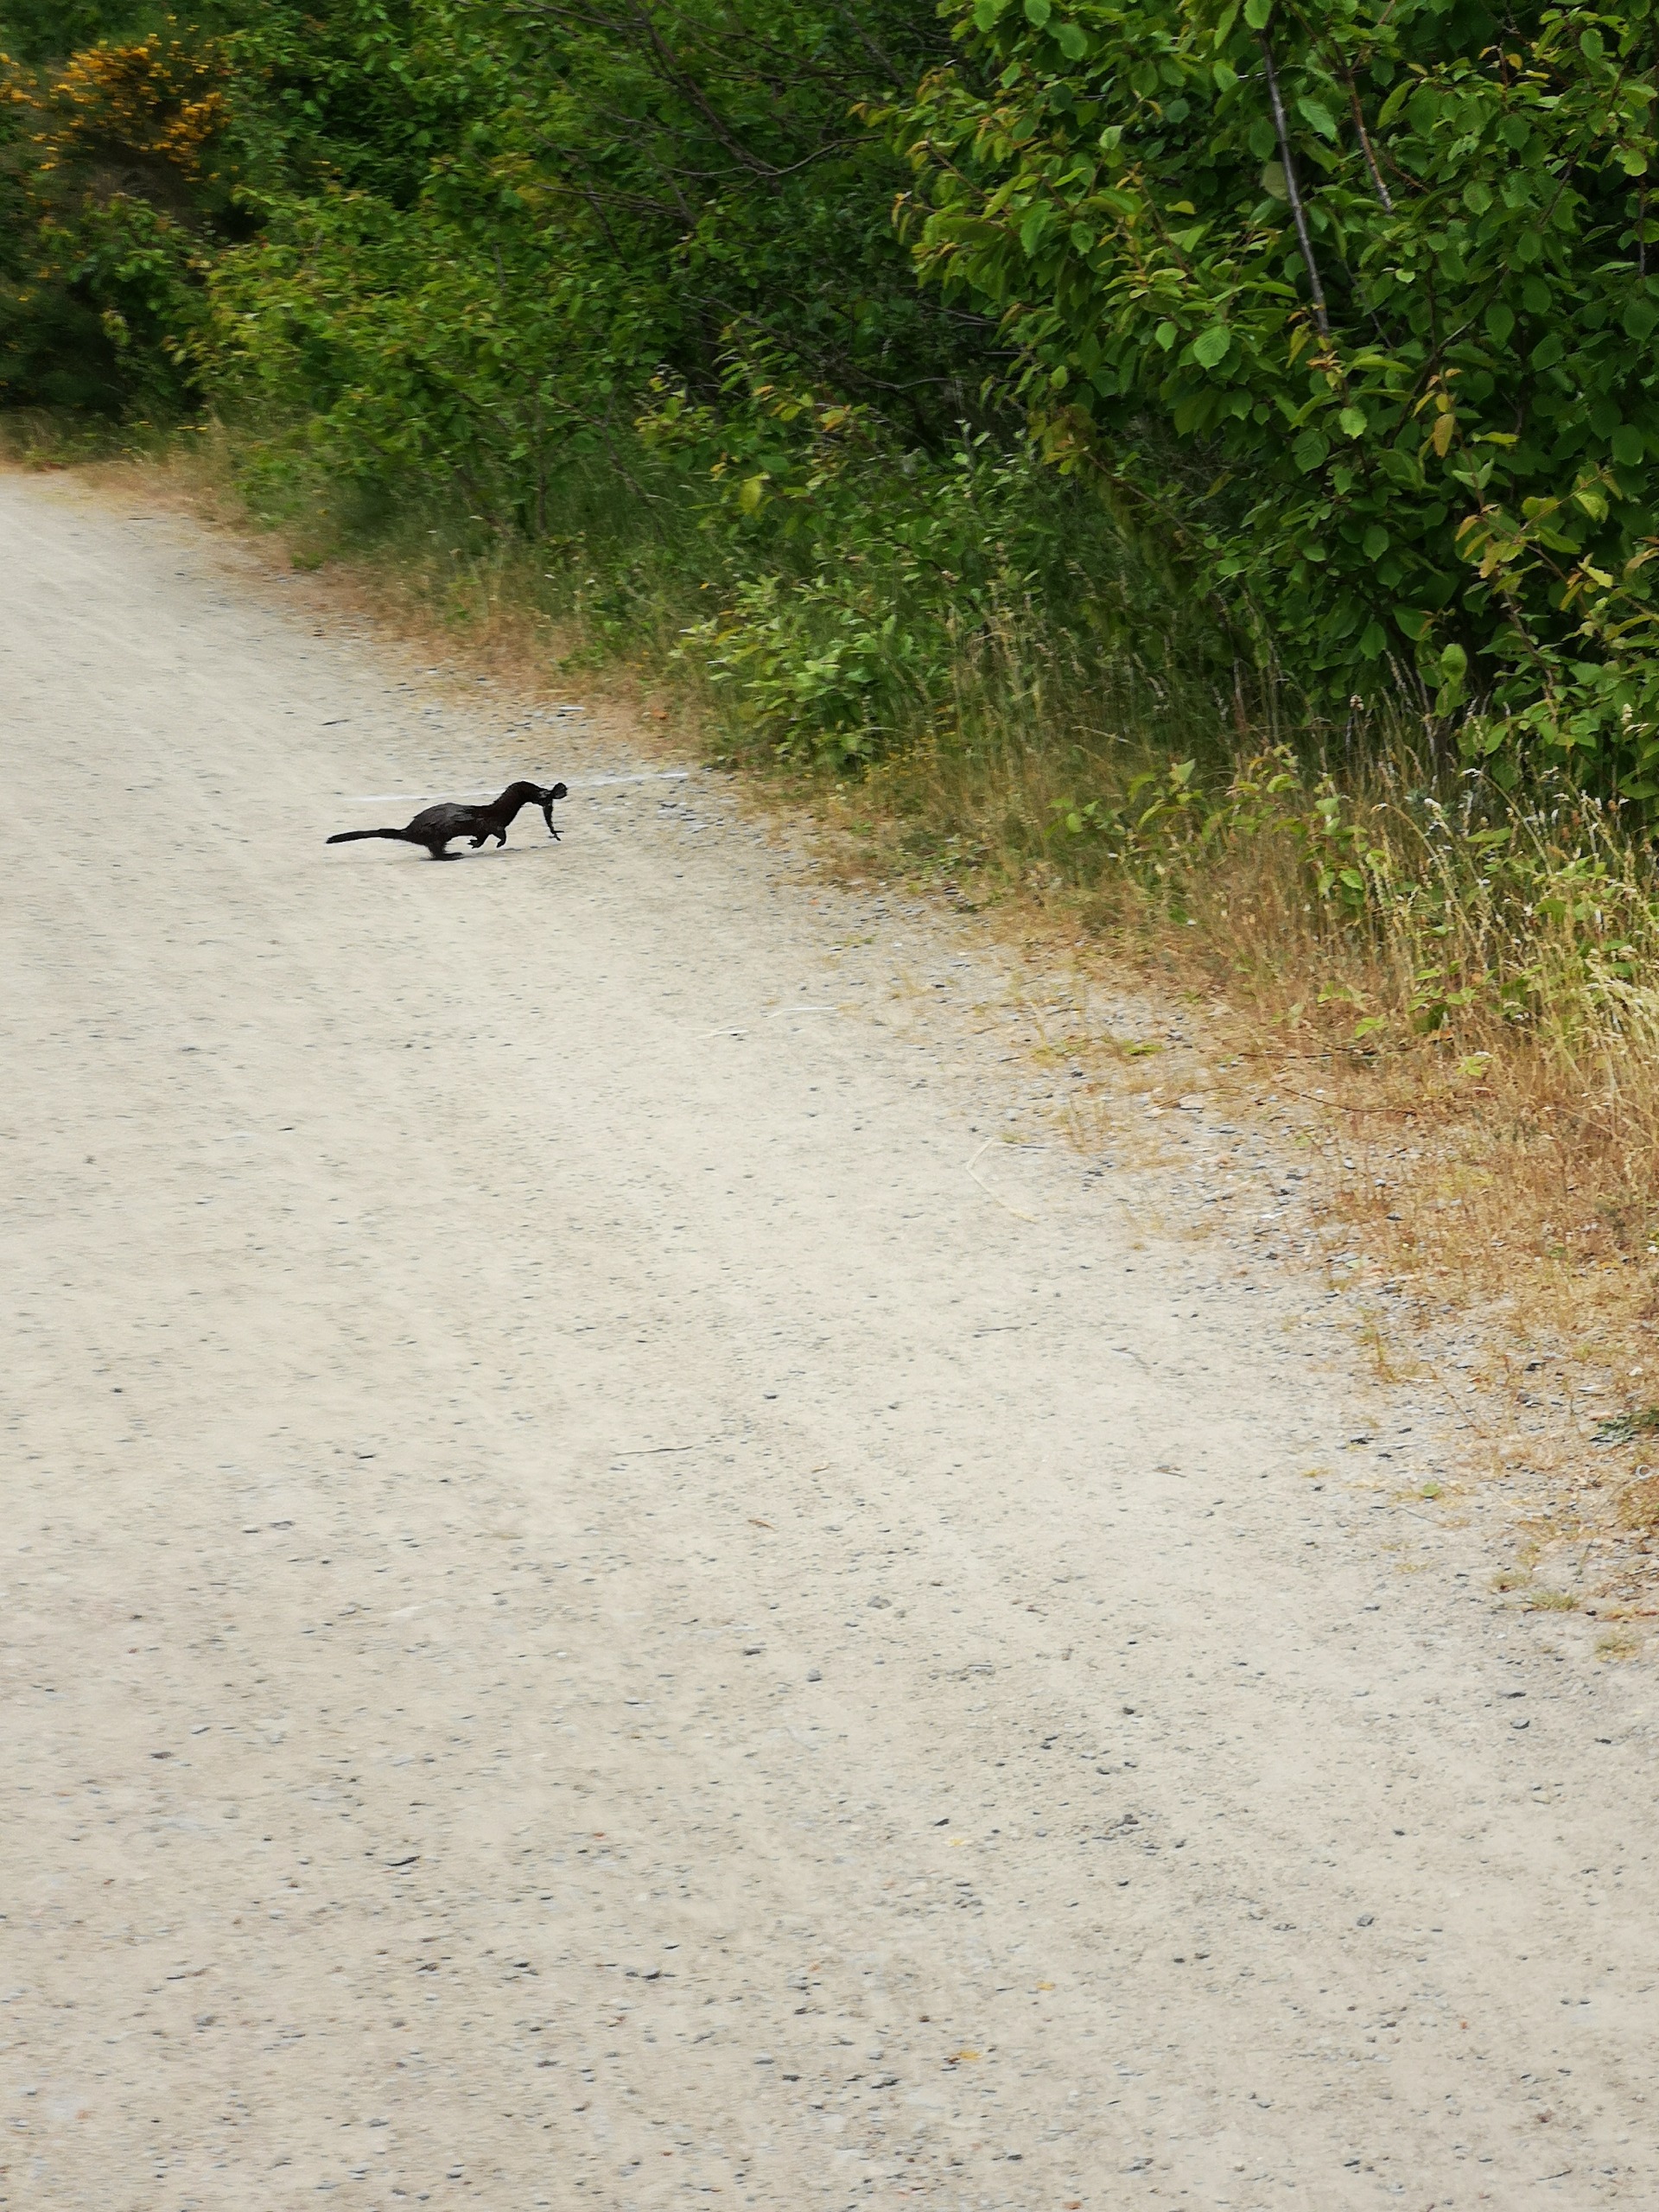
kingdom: Animalia
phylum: Chordata
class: Mammalia
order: Carnivora
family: Mustelidae
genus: Mustela
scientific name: Mustela vison
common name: Mink
